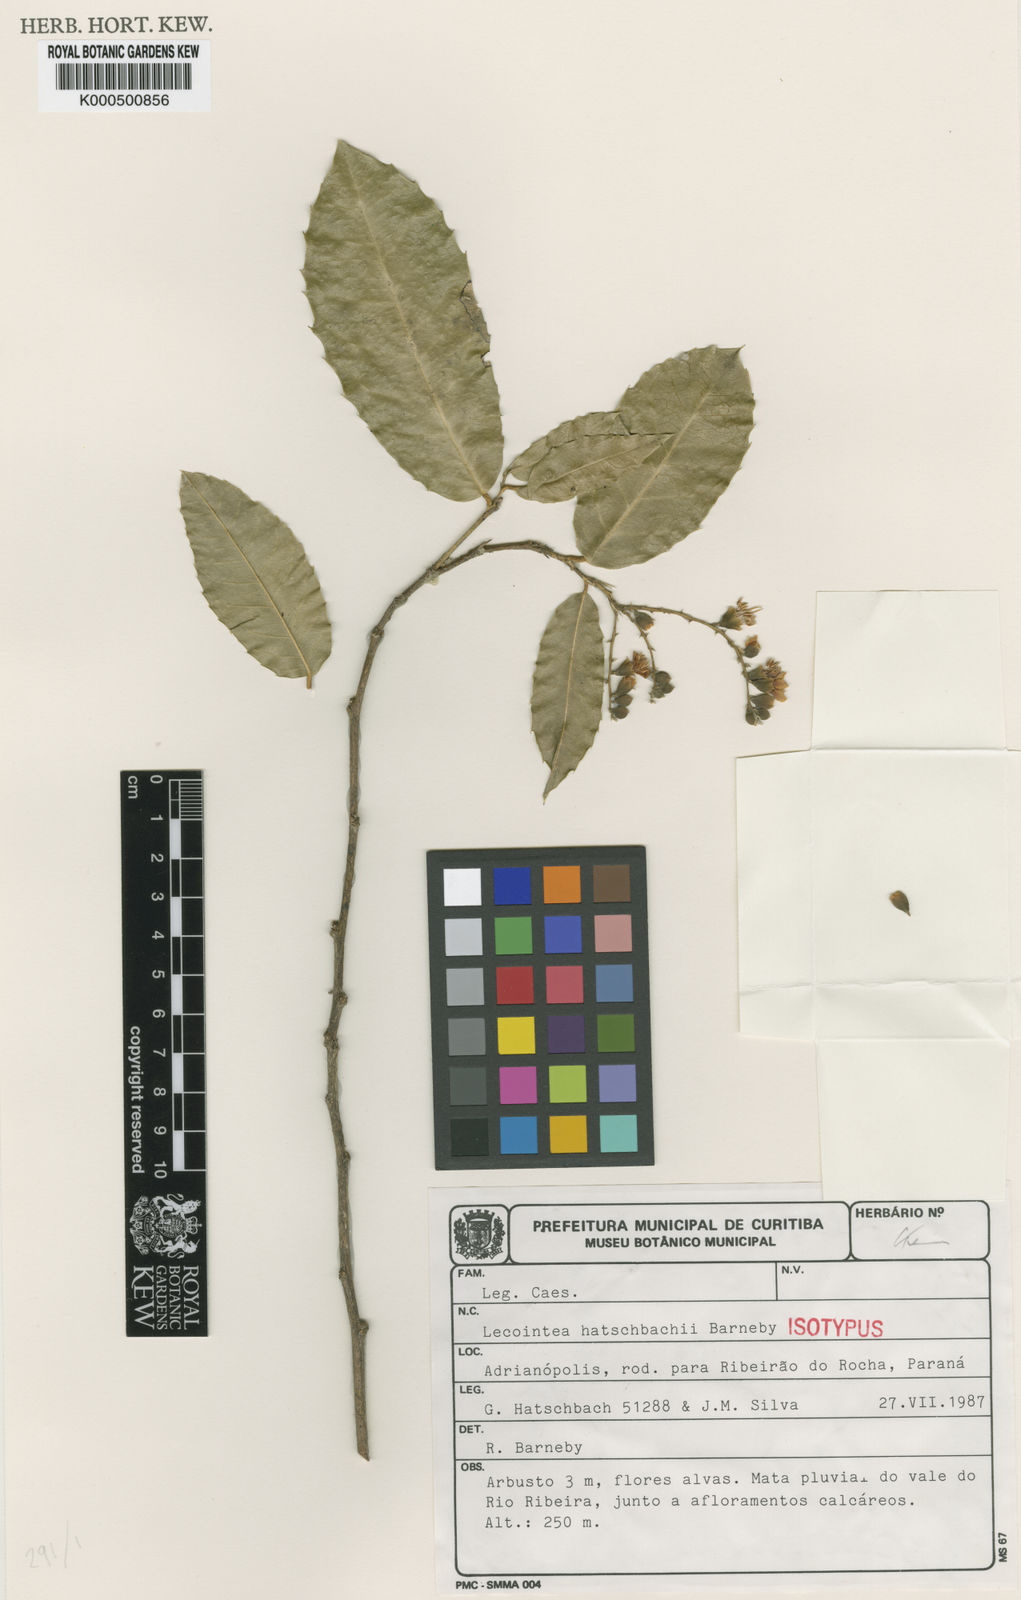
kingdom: Plantae
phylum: Tracheophyta
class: Magnoliopsida
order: Fabales
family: Fabaceae
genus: Lecointea
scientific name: Lecointea hatschbachii
